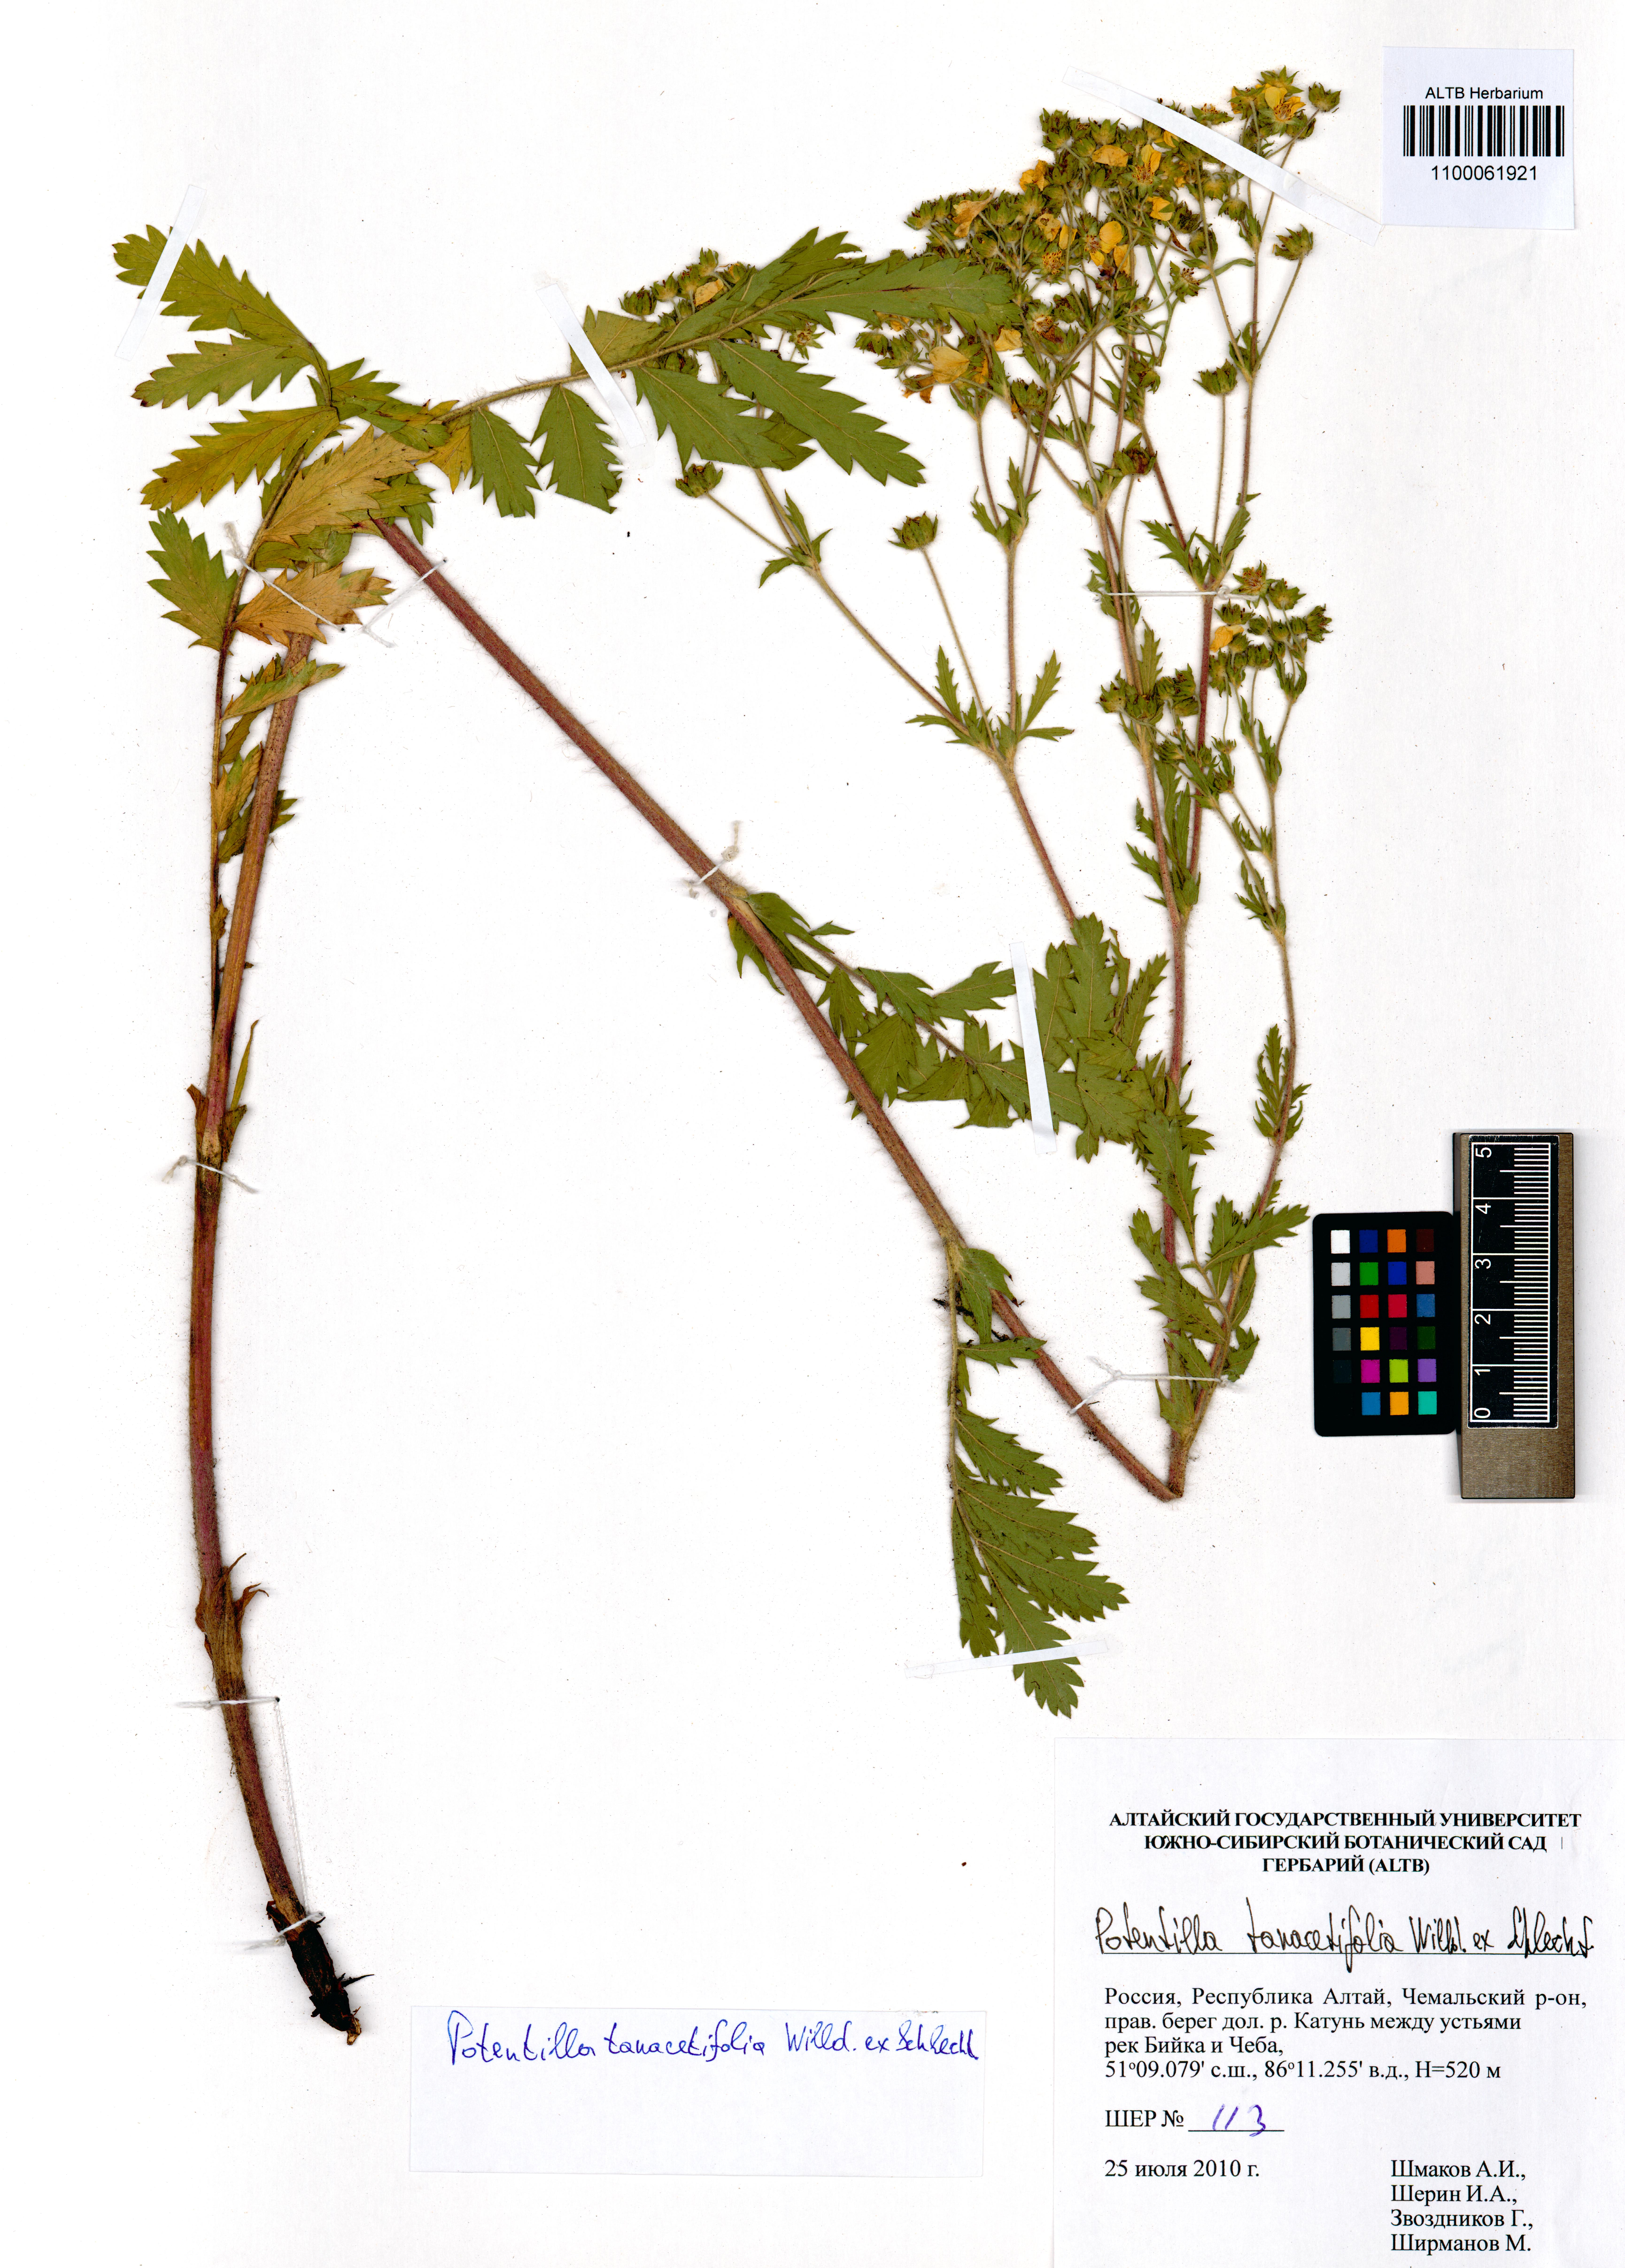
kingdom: Plantae
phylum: Tracheophyta
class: Magnoliopsida
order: Rosales
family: Rosaceae
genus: Potentilla
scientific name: Potentilla tanacetifolia
